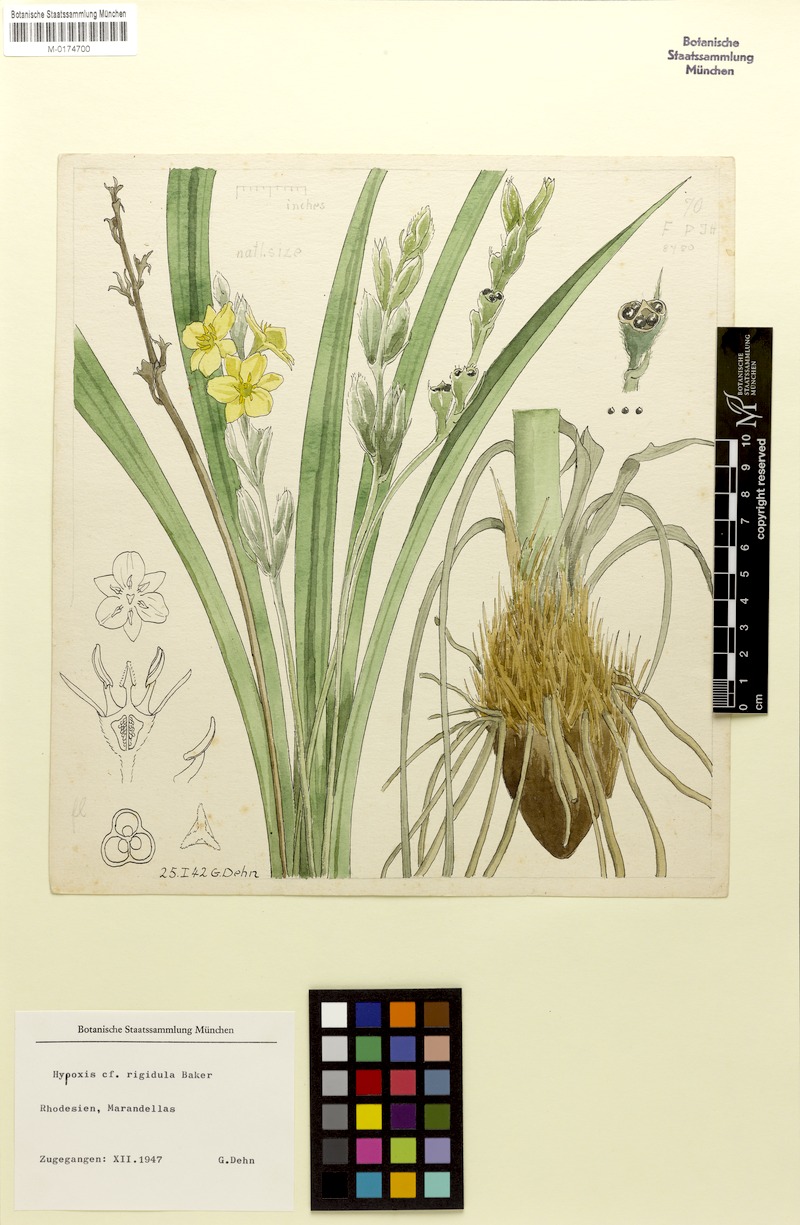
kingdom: Plantae
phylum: Tracheophyta
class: Liliopsida
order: Asparagales
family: Hypoxidaceae
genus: Hypoxis
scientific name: Hypoxis rigidula
